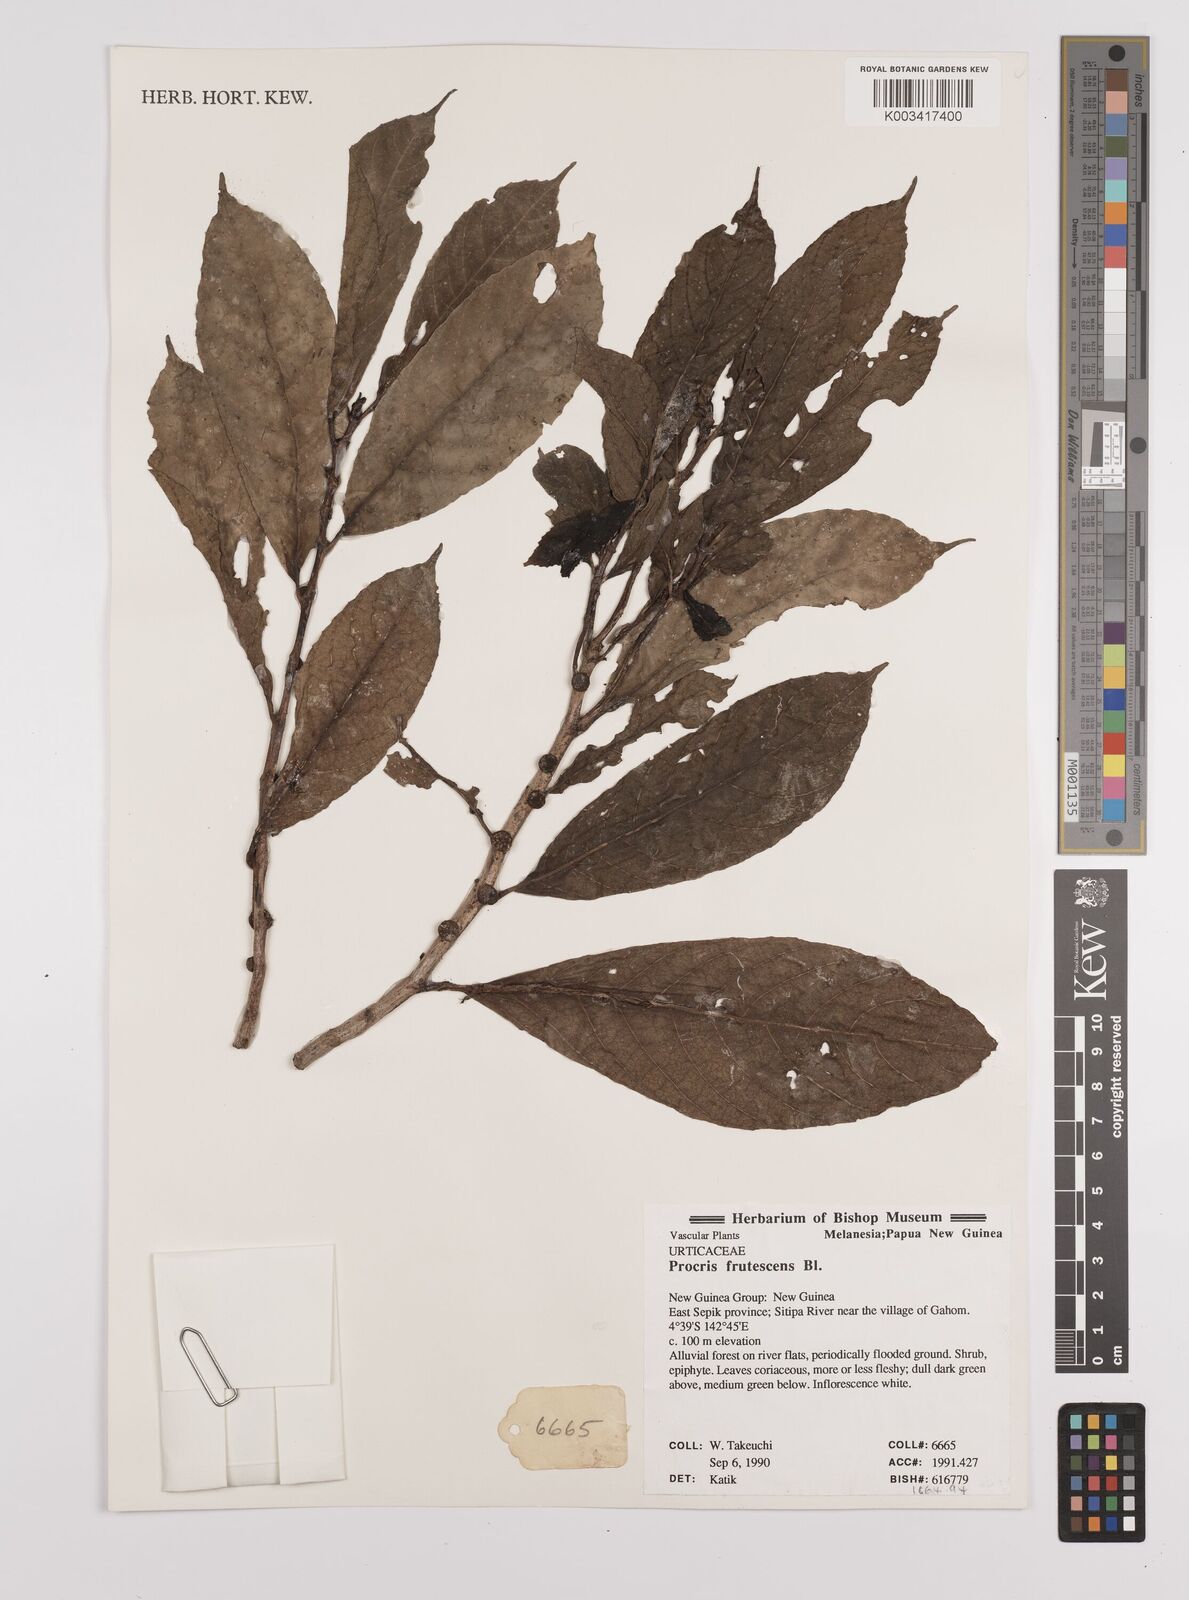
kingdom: Plantae
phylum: Tracheophyta
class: Magnoliopsida
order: Rosales
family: Urticaceae
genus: Procris
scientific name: Procris frutescens
